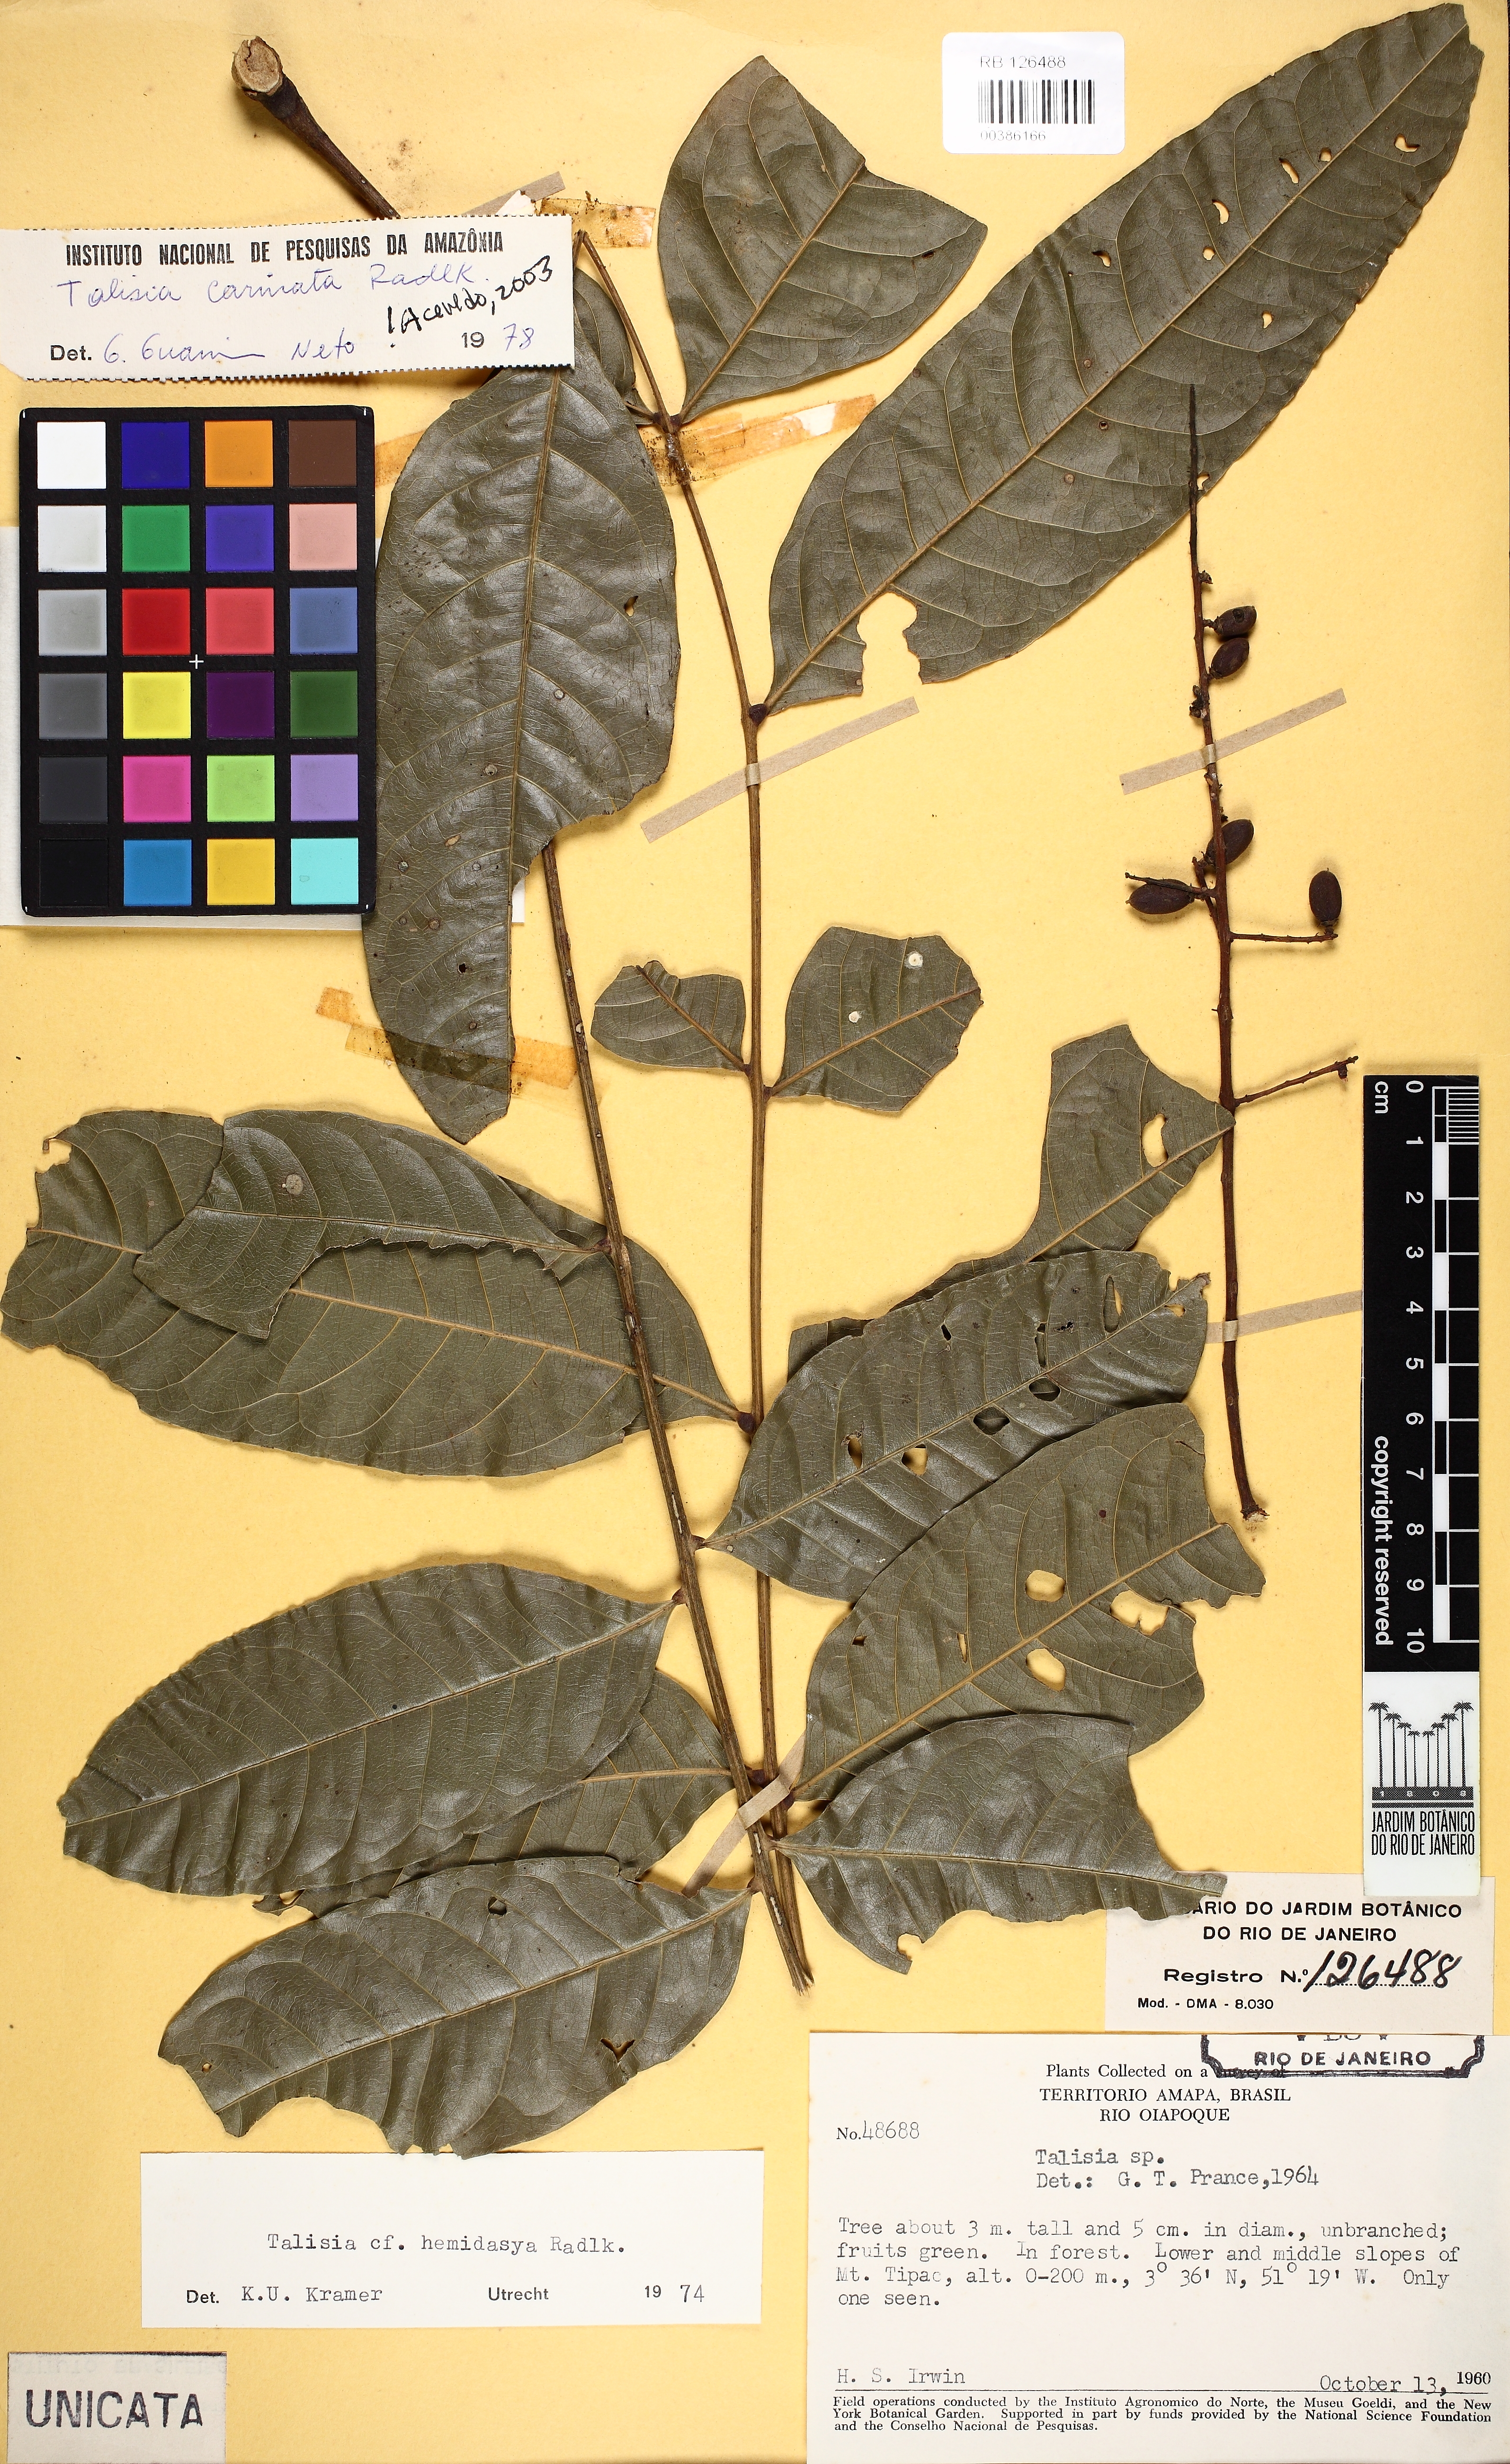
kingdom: Plantae
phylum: Tracheophyta
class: Magnoliopsida
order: Sapindales
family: Sapindaceae
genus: Talisia
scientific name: Talisia carinata
